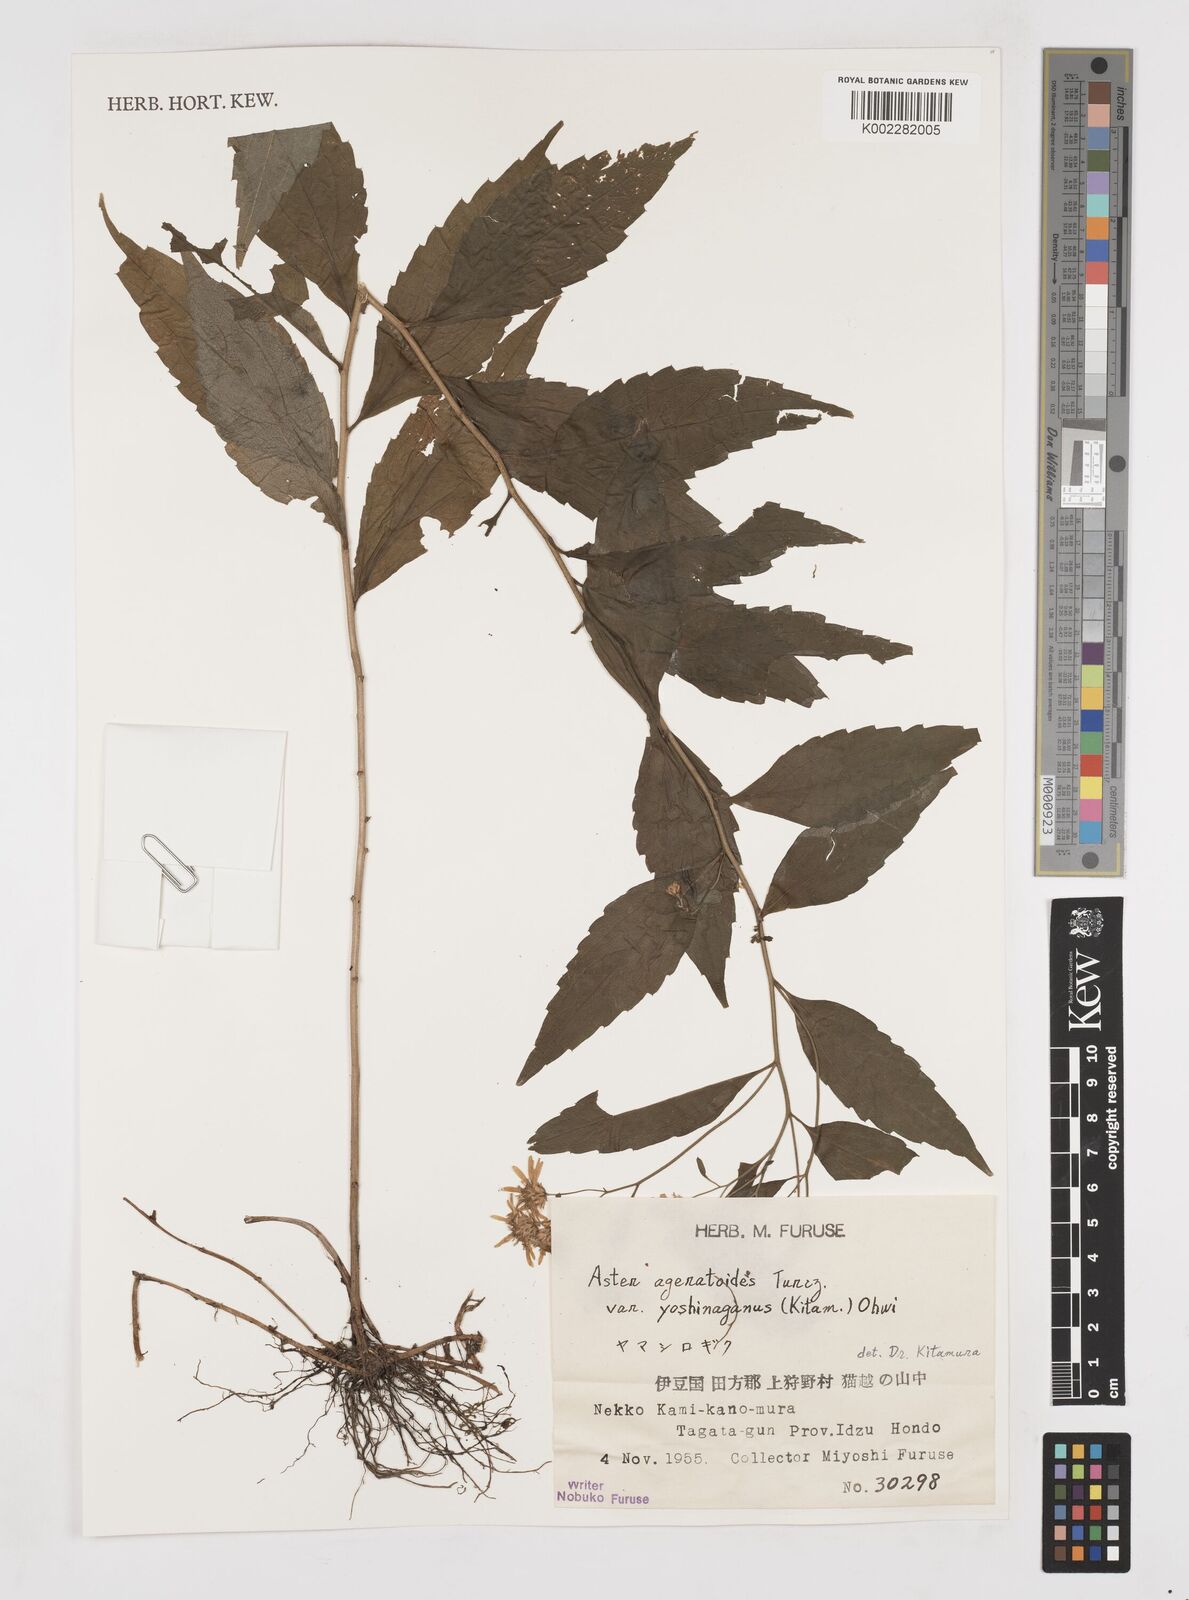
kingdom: Plantae
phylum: Tracheophyta
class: Magnoliopsida
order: Asterales
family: Asteraceae
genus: Aster
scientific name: Aster trinervius
